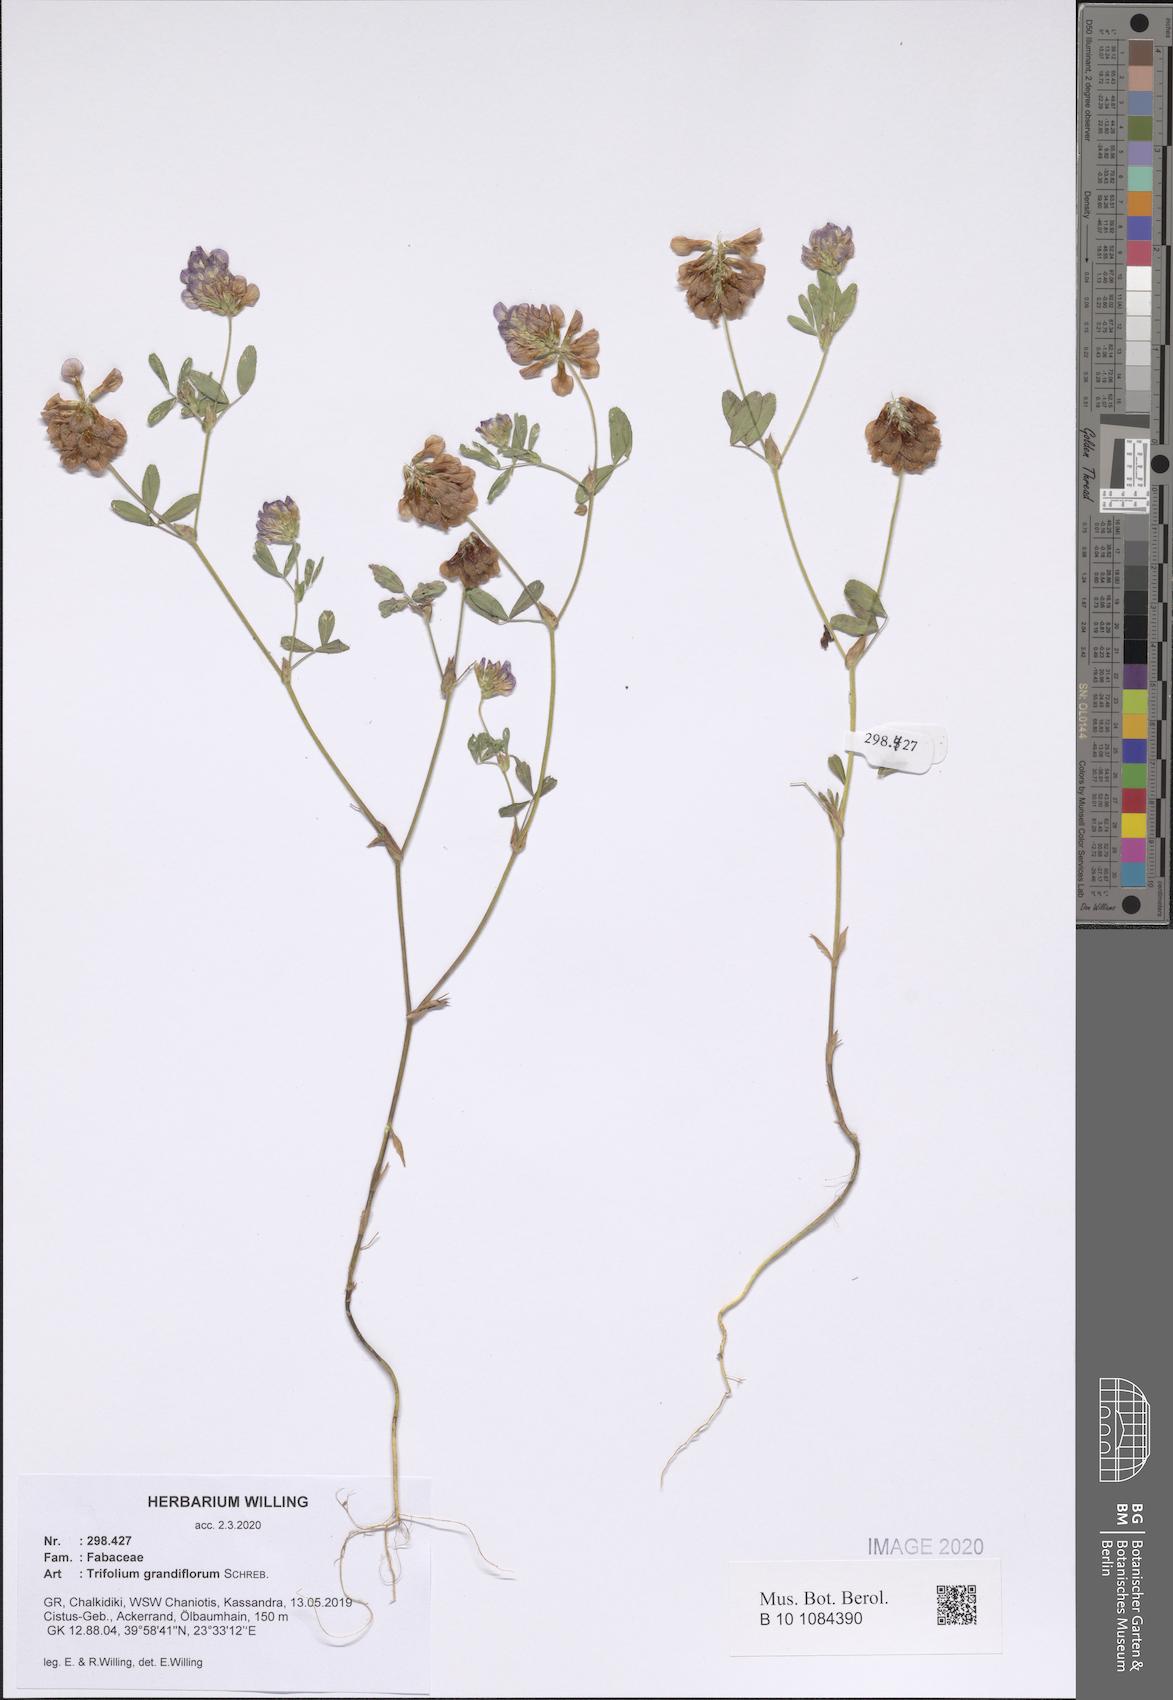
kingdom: Plantae
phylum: Tracheophyta
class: Magnoliopsida
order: Fabales
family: Fabaceae
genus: Trifolium
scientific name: Trifolium grandiflorum
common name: Large-flower hop clover
